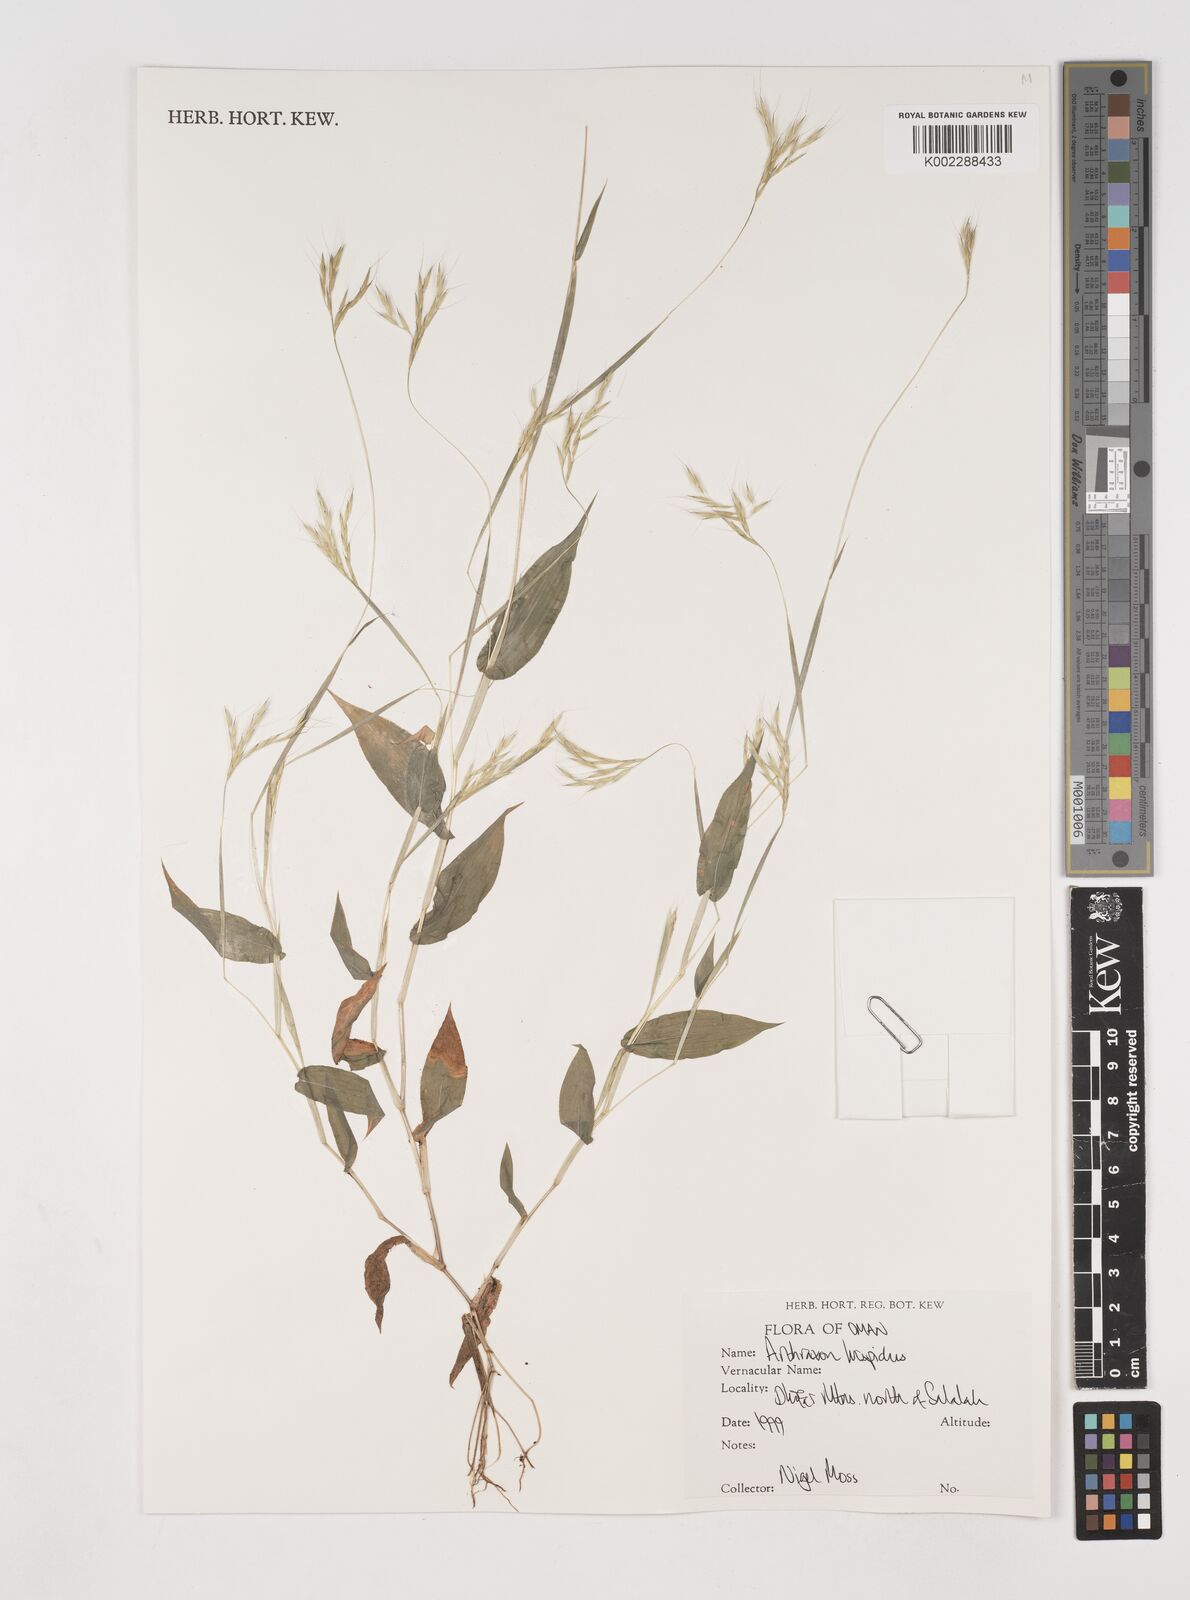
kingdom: Plantae
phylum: Tracheophyta
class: Liliopsida
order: Poales
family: Poaceae
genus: Arthraxon
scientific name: Arthraxon hispidus
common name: Small carpgrass
